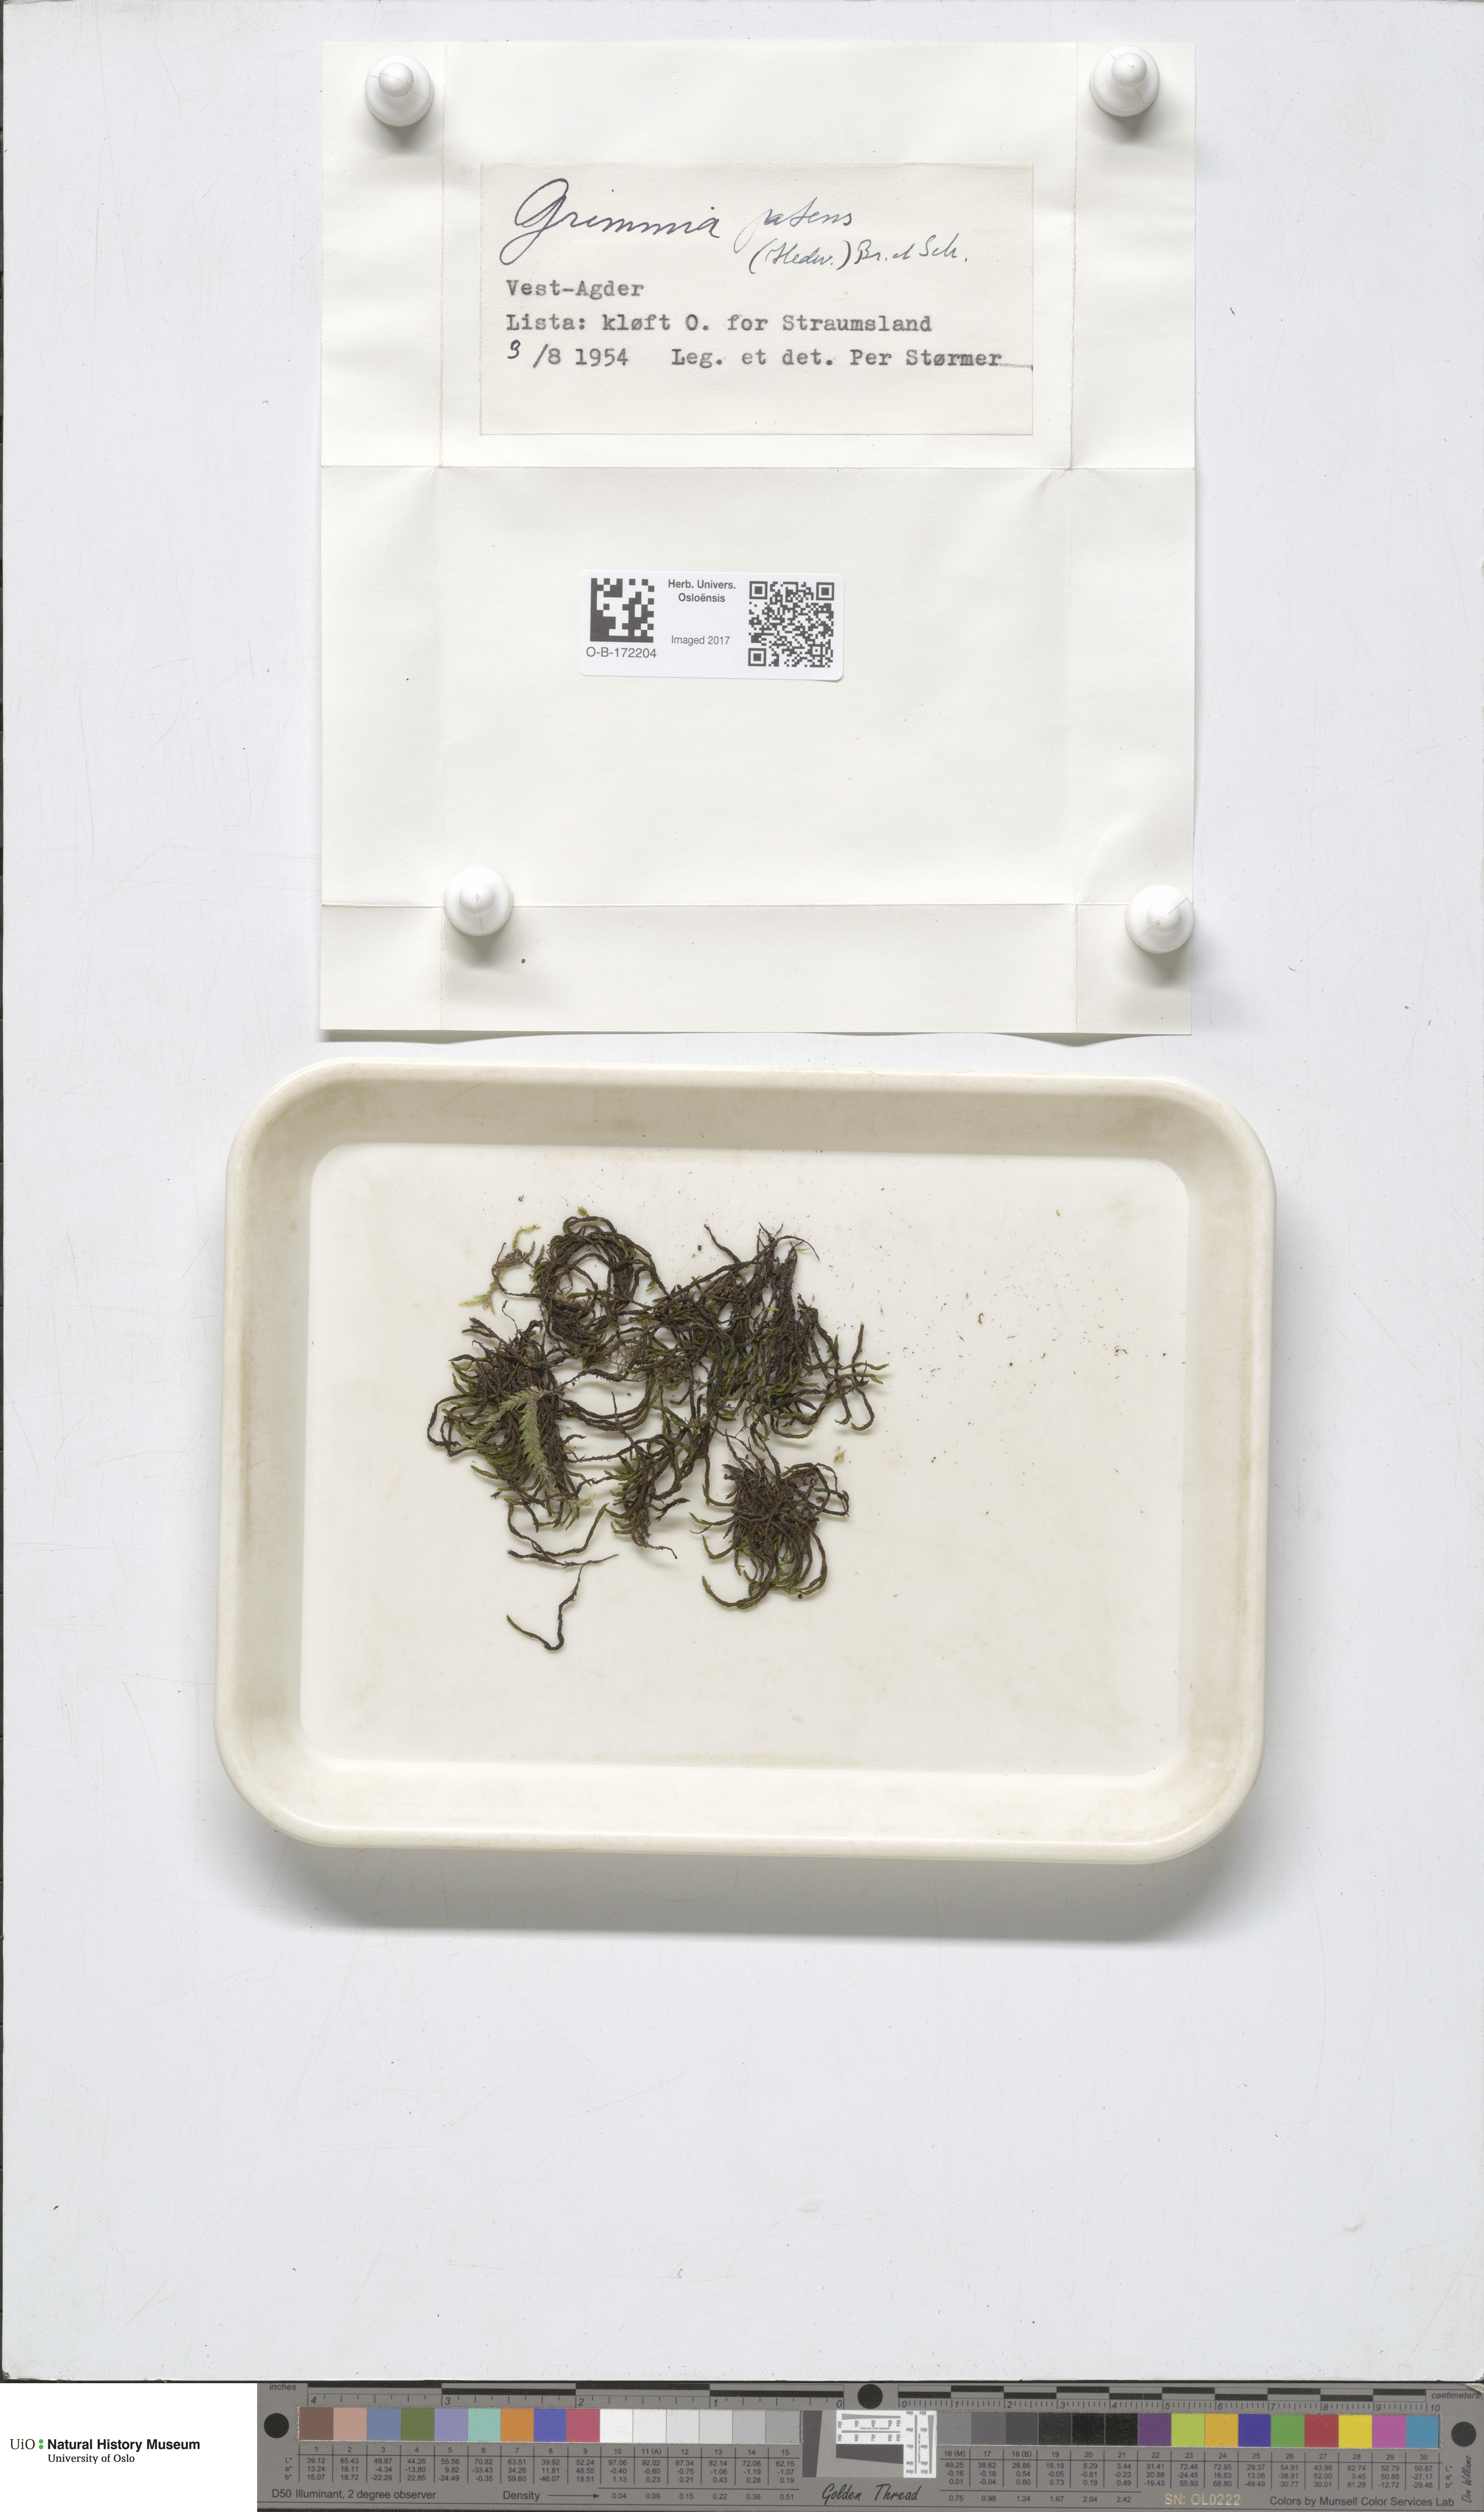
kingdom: Plantae
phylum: Bryophyta
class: Bryopsida
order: Grimmiales
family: Grimmiaceae
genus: Grimmia
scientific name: Grimmia ramondii
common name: Spreading-leaved grimmia
